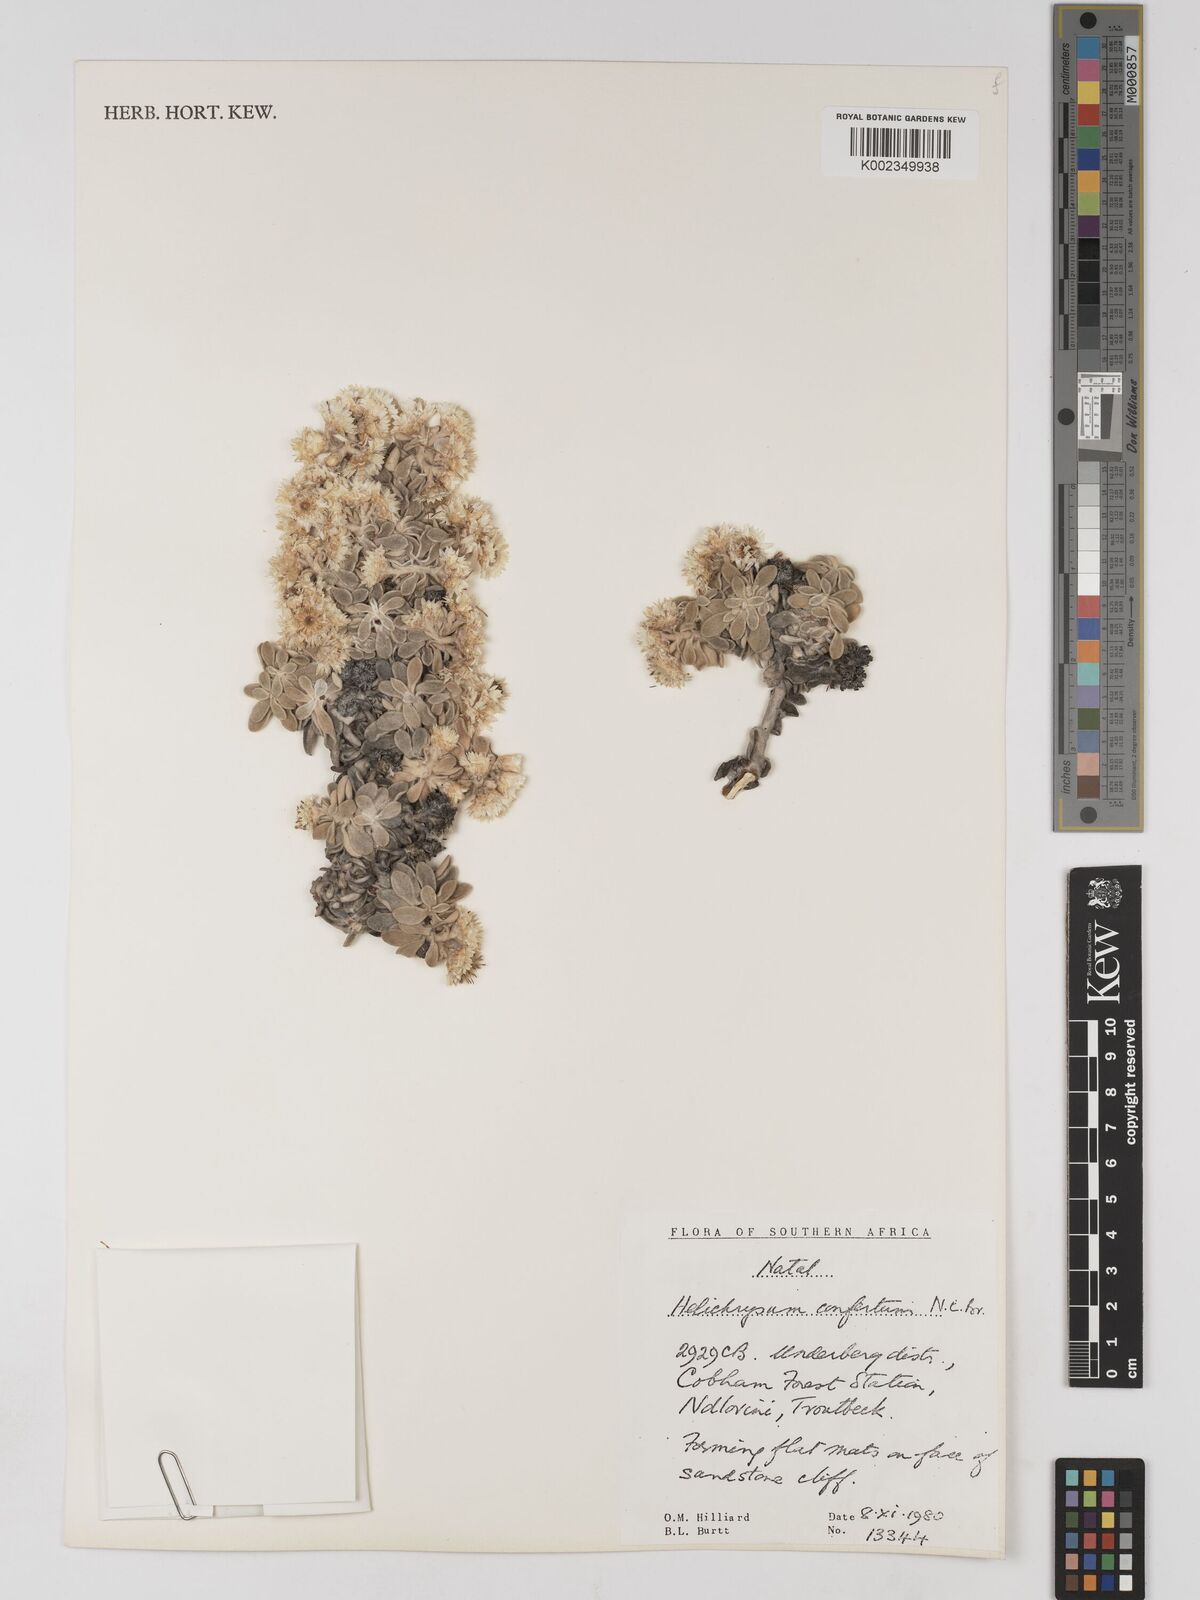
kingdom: Plantae
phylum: Tracheophyta
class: Magnoliopsida
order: Asterales
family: Asteraceae
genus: Helichrysum
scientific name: Helichrysum confertum
